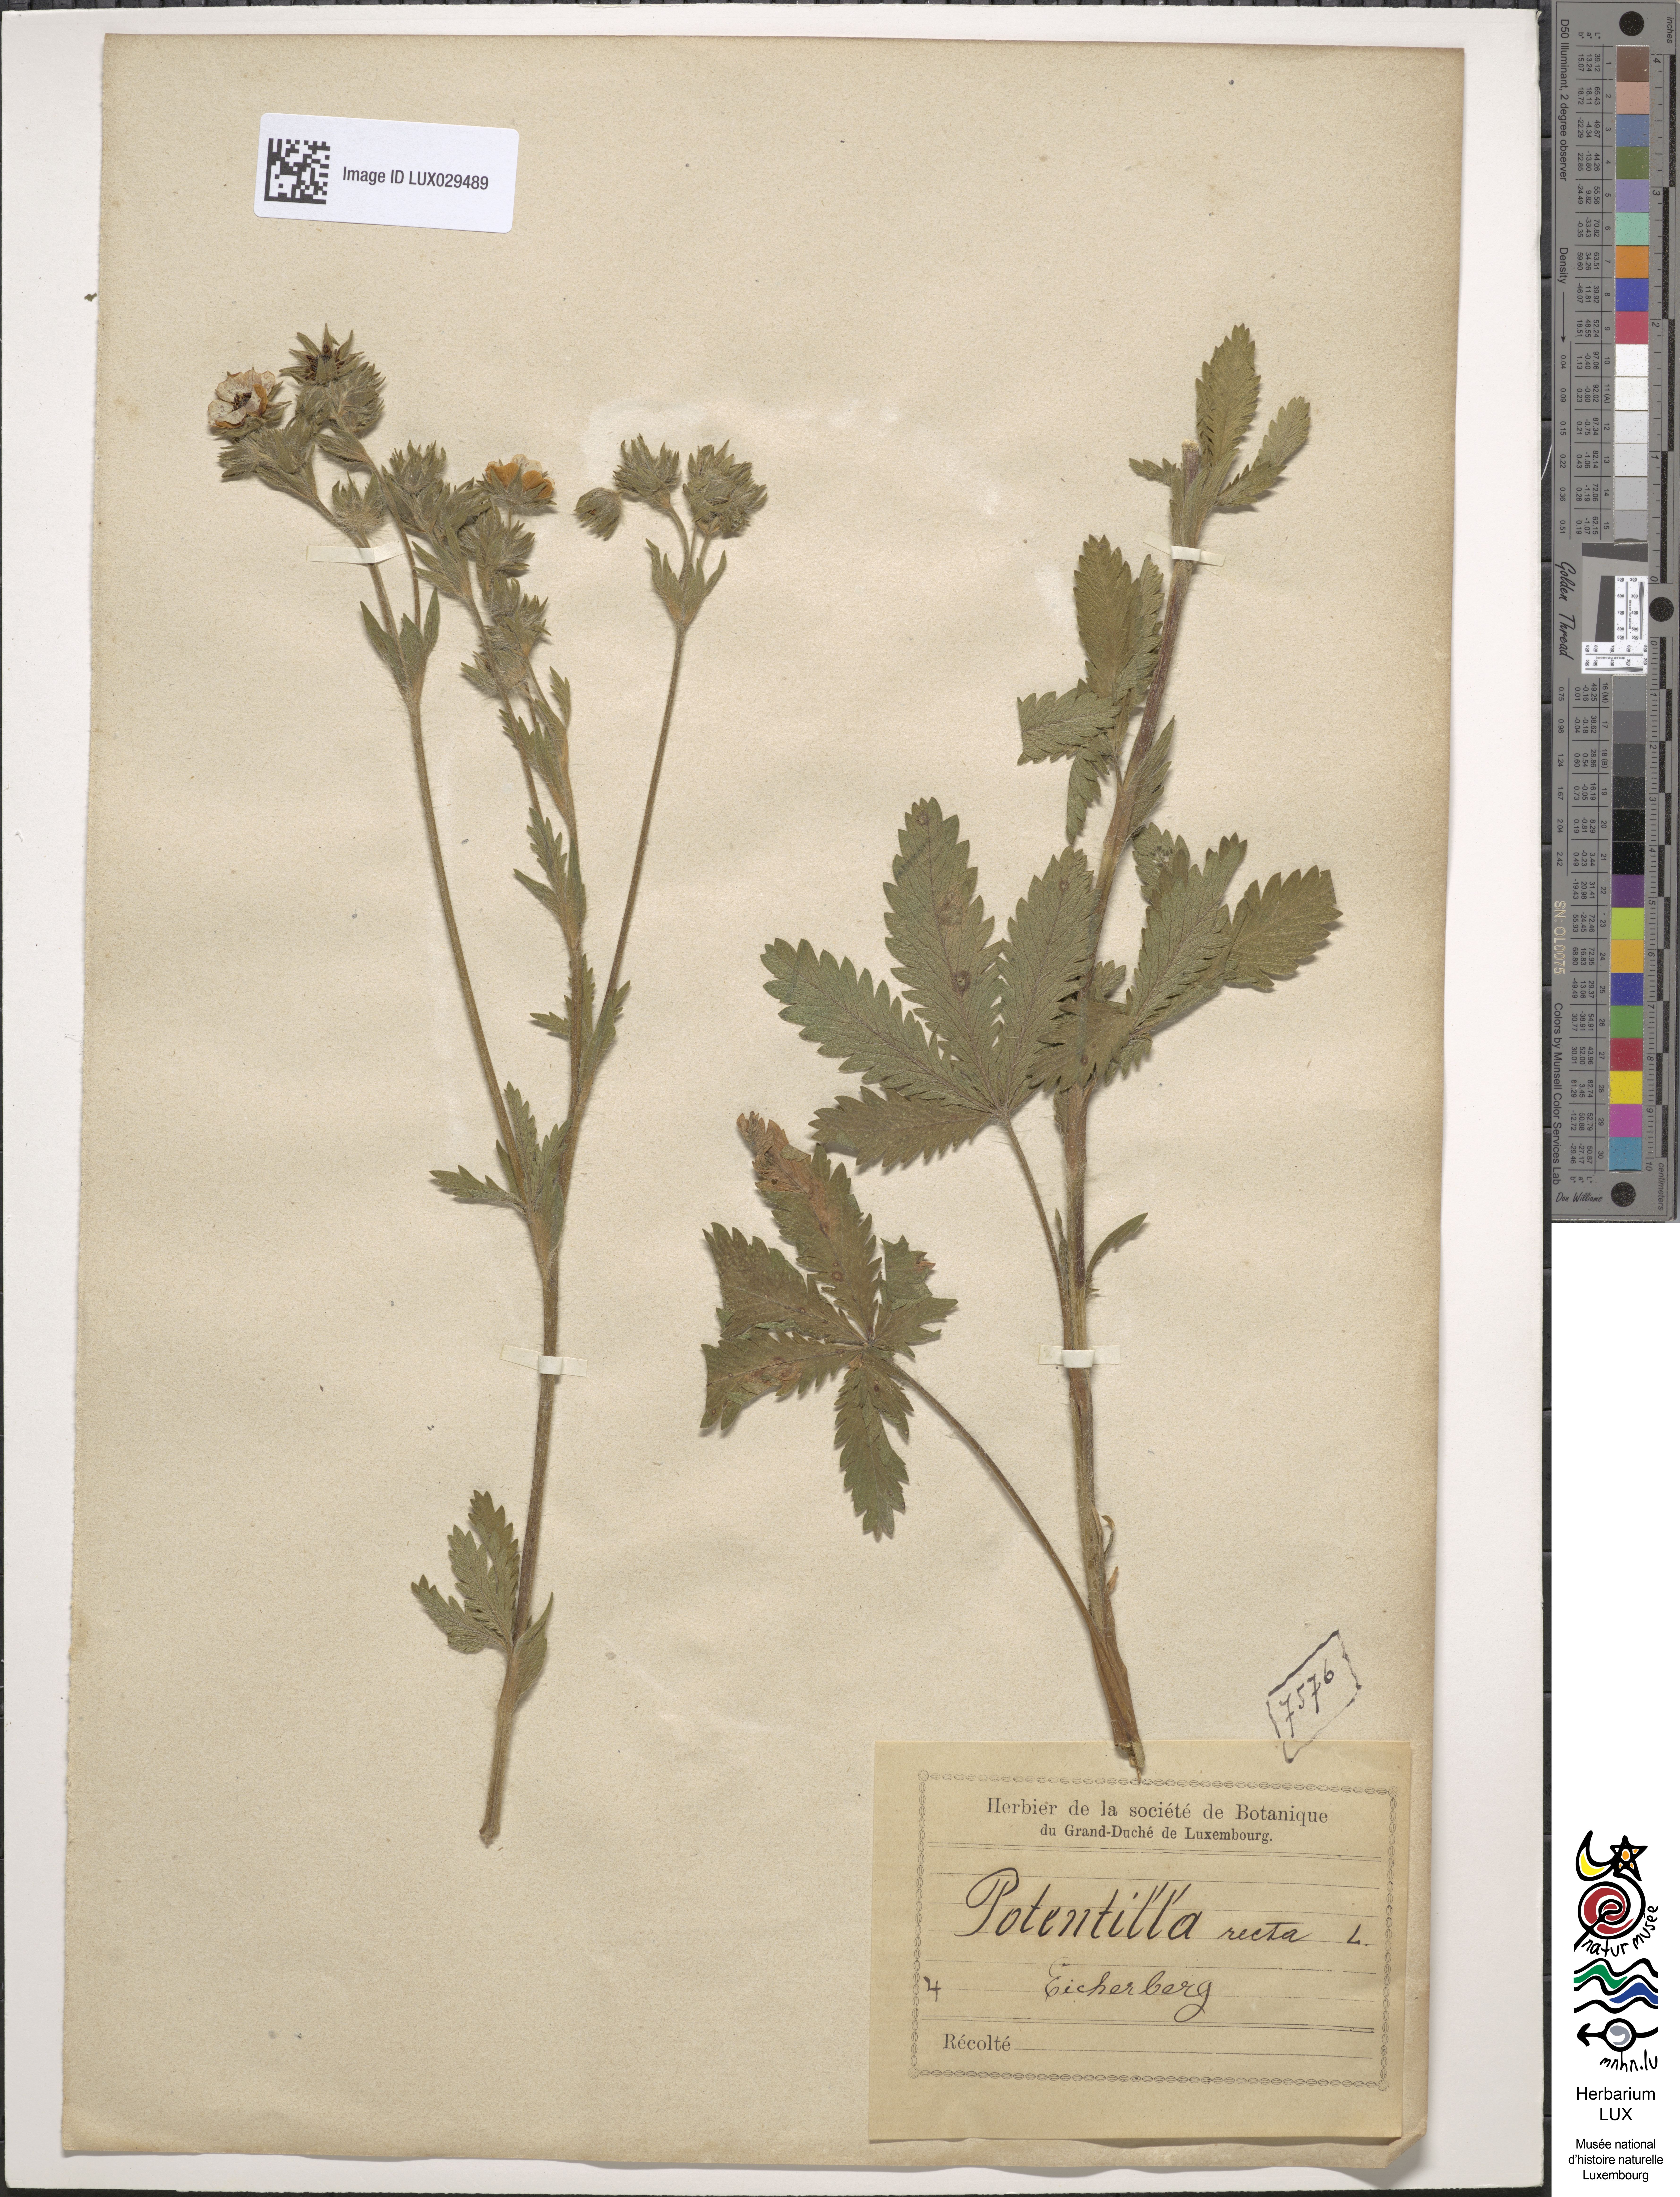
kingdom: Plantae
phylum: Tracheophyta
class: Magnoliopsida
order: Rosales
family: Rosaceae
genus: Potentilla
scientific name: Potentilla recta
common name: Sulphur cinquefoil
